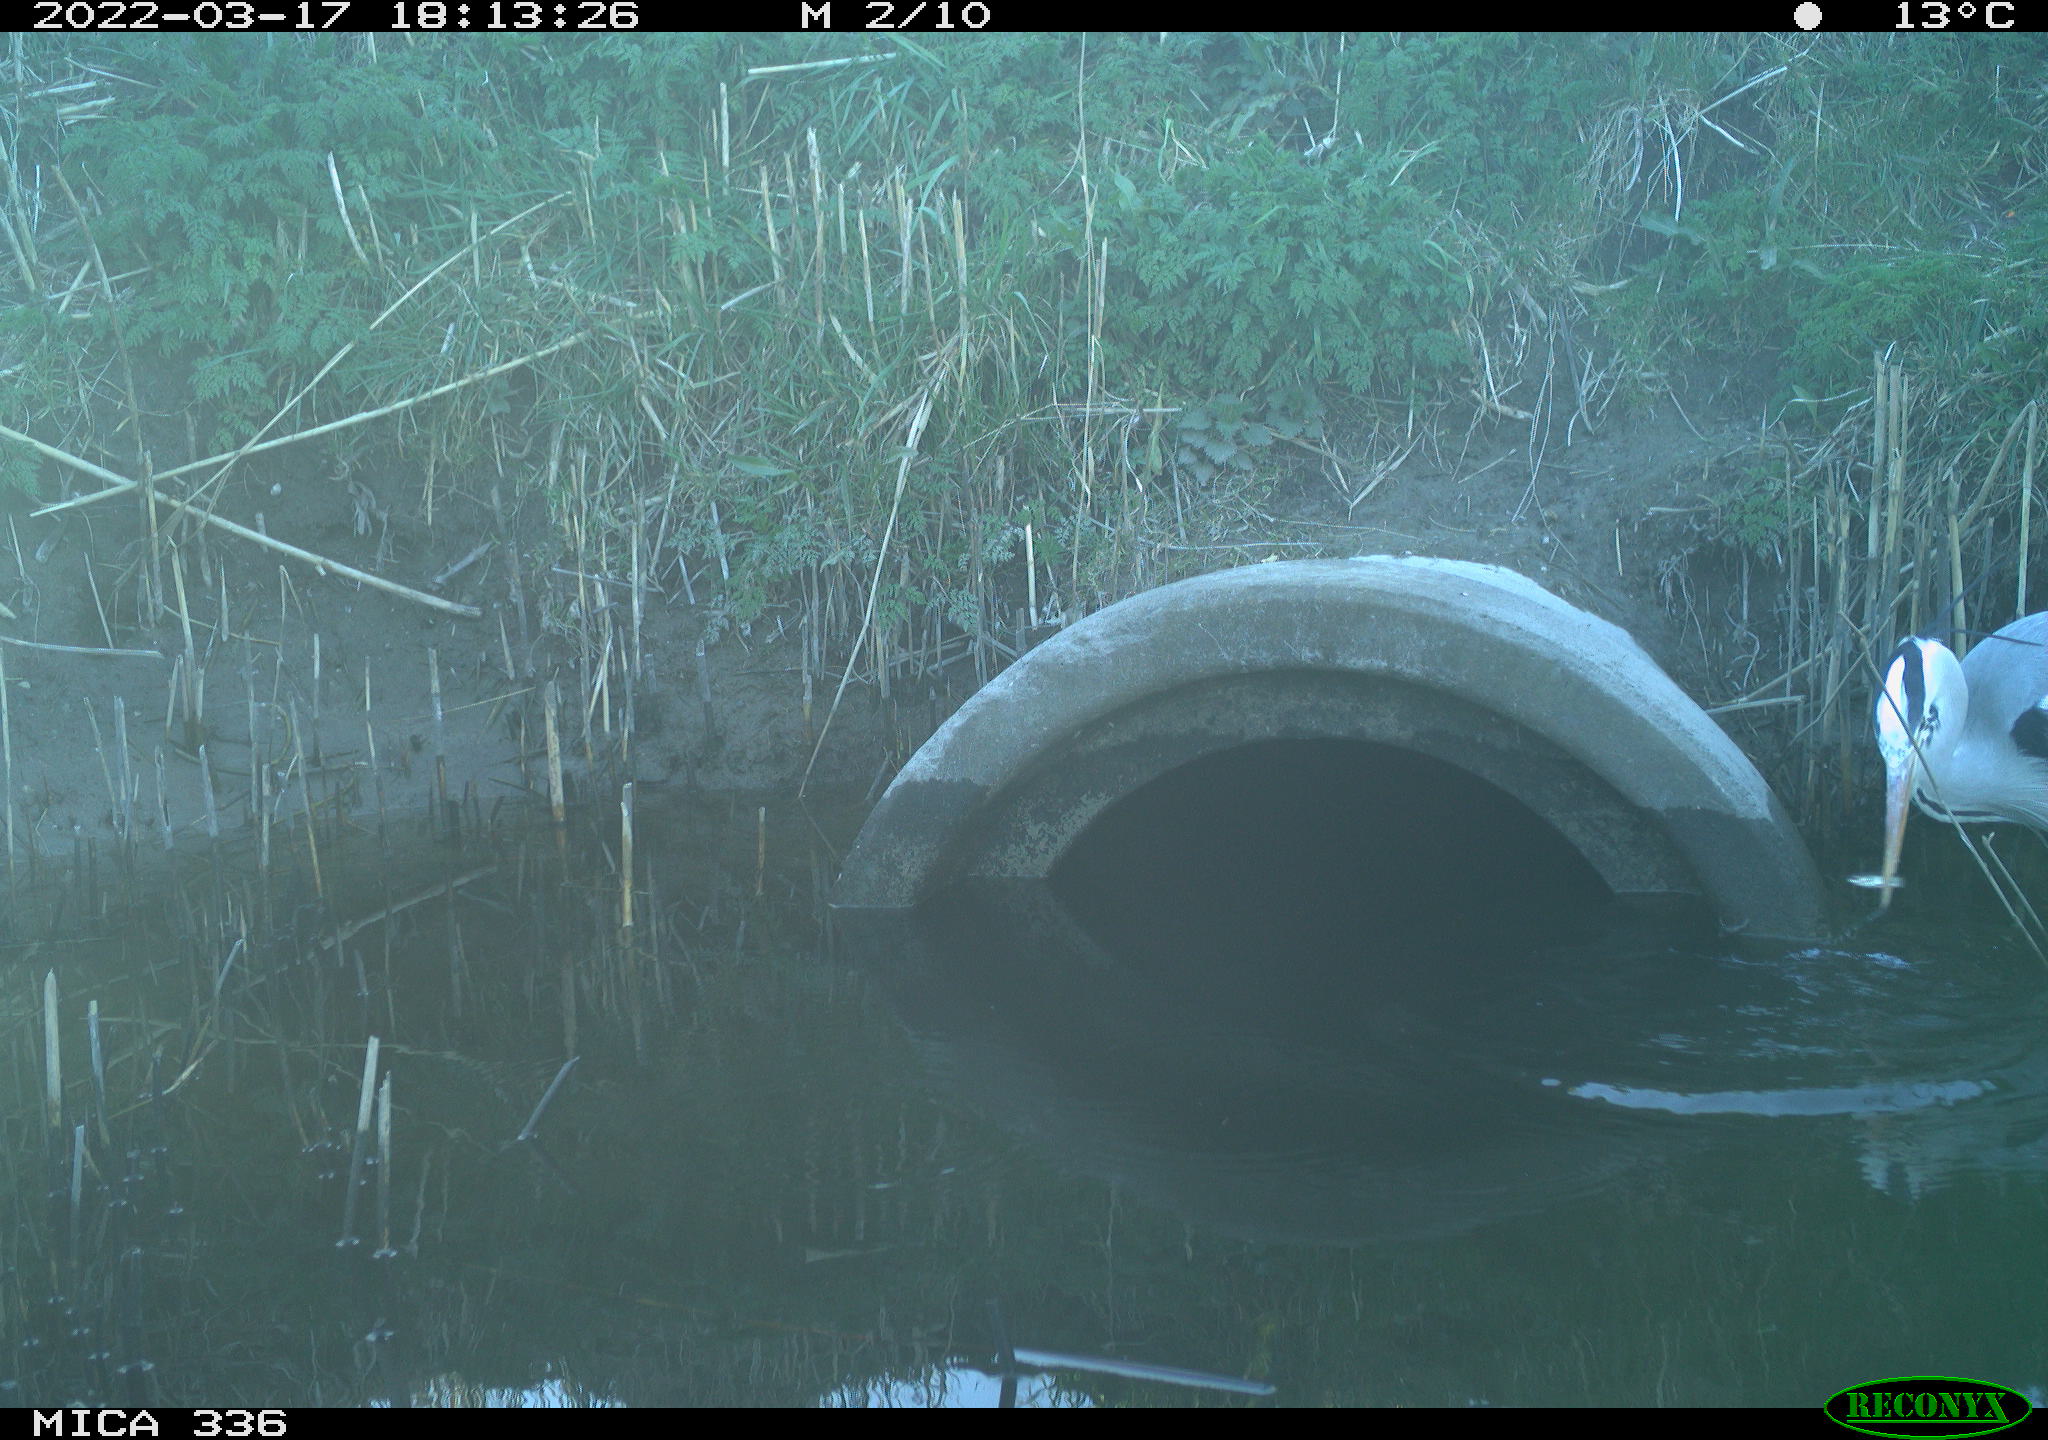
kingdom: Animalia
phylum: Chordata
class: Aves
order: Pelecaniformes
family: Ardeidae
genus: Ardea
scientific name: Ardea cinerea
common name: Grey heron
